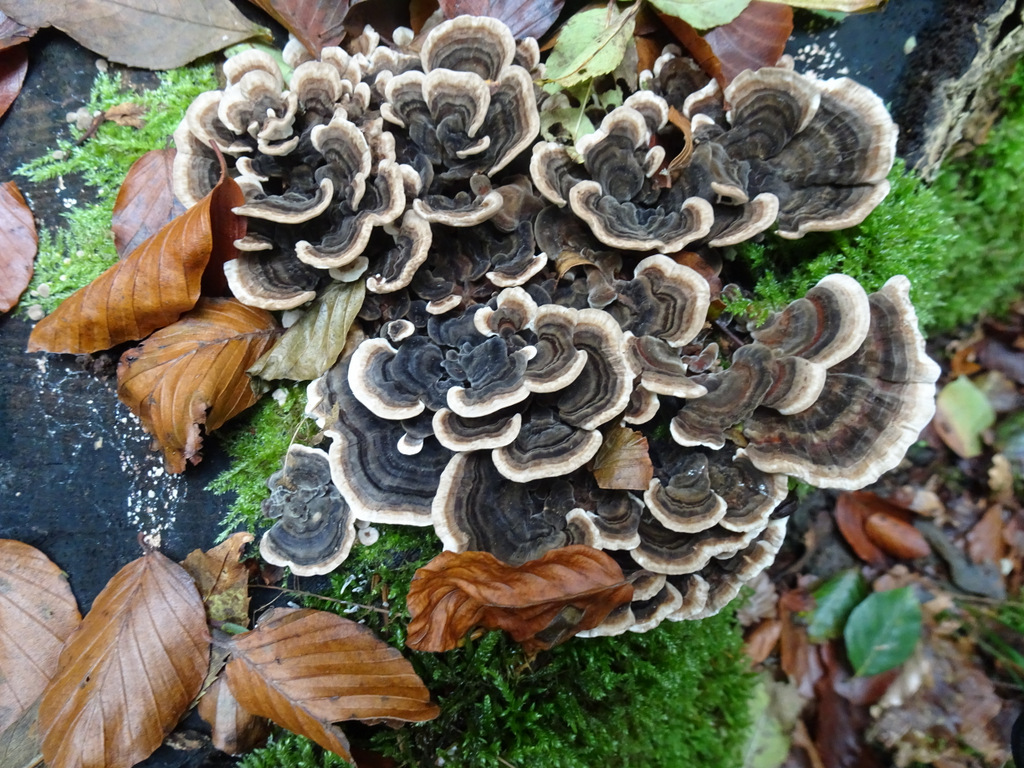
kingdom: Fungi
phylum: Basidiomycota
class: Agaricomycetes
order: Polyporales
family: Polyporaceae
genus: Trametes
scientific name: Trametes versicolor
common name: broget læderporesvamp
